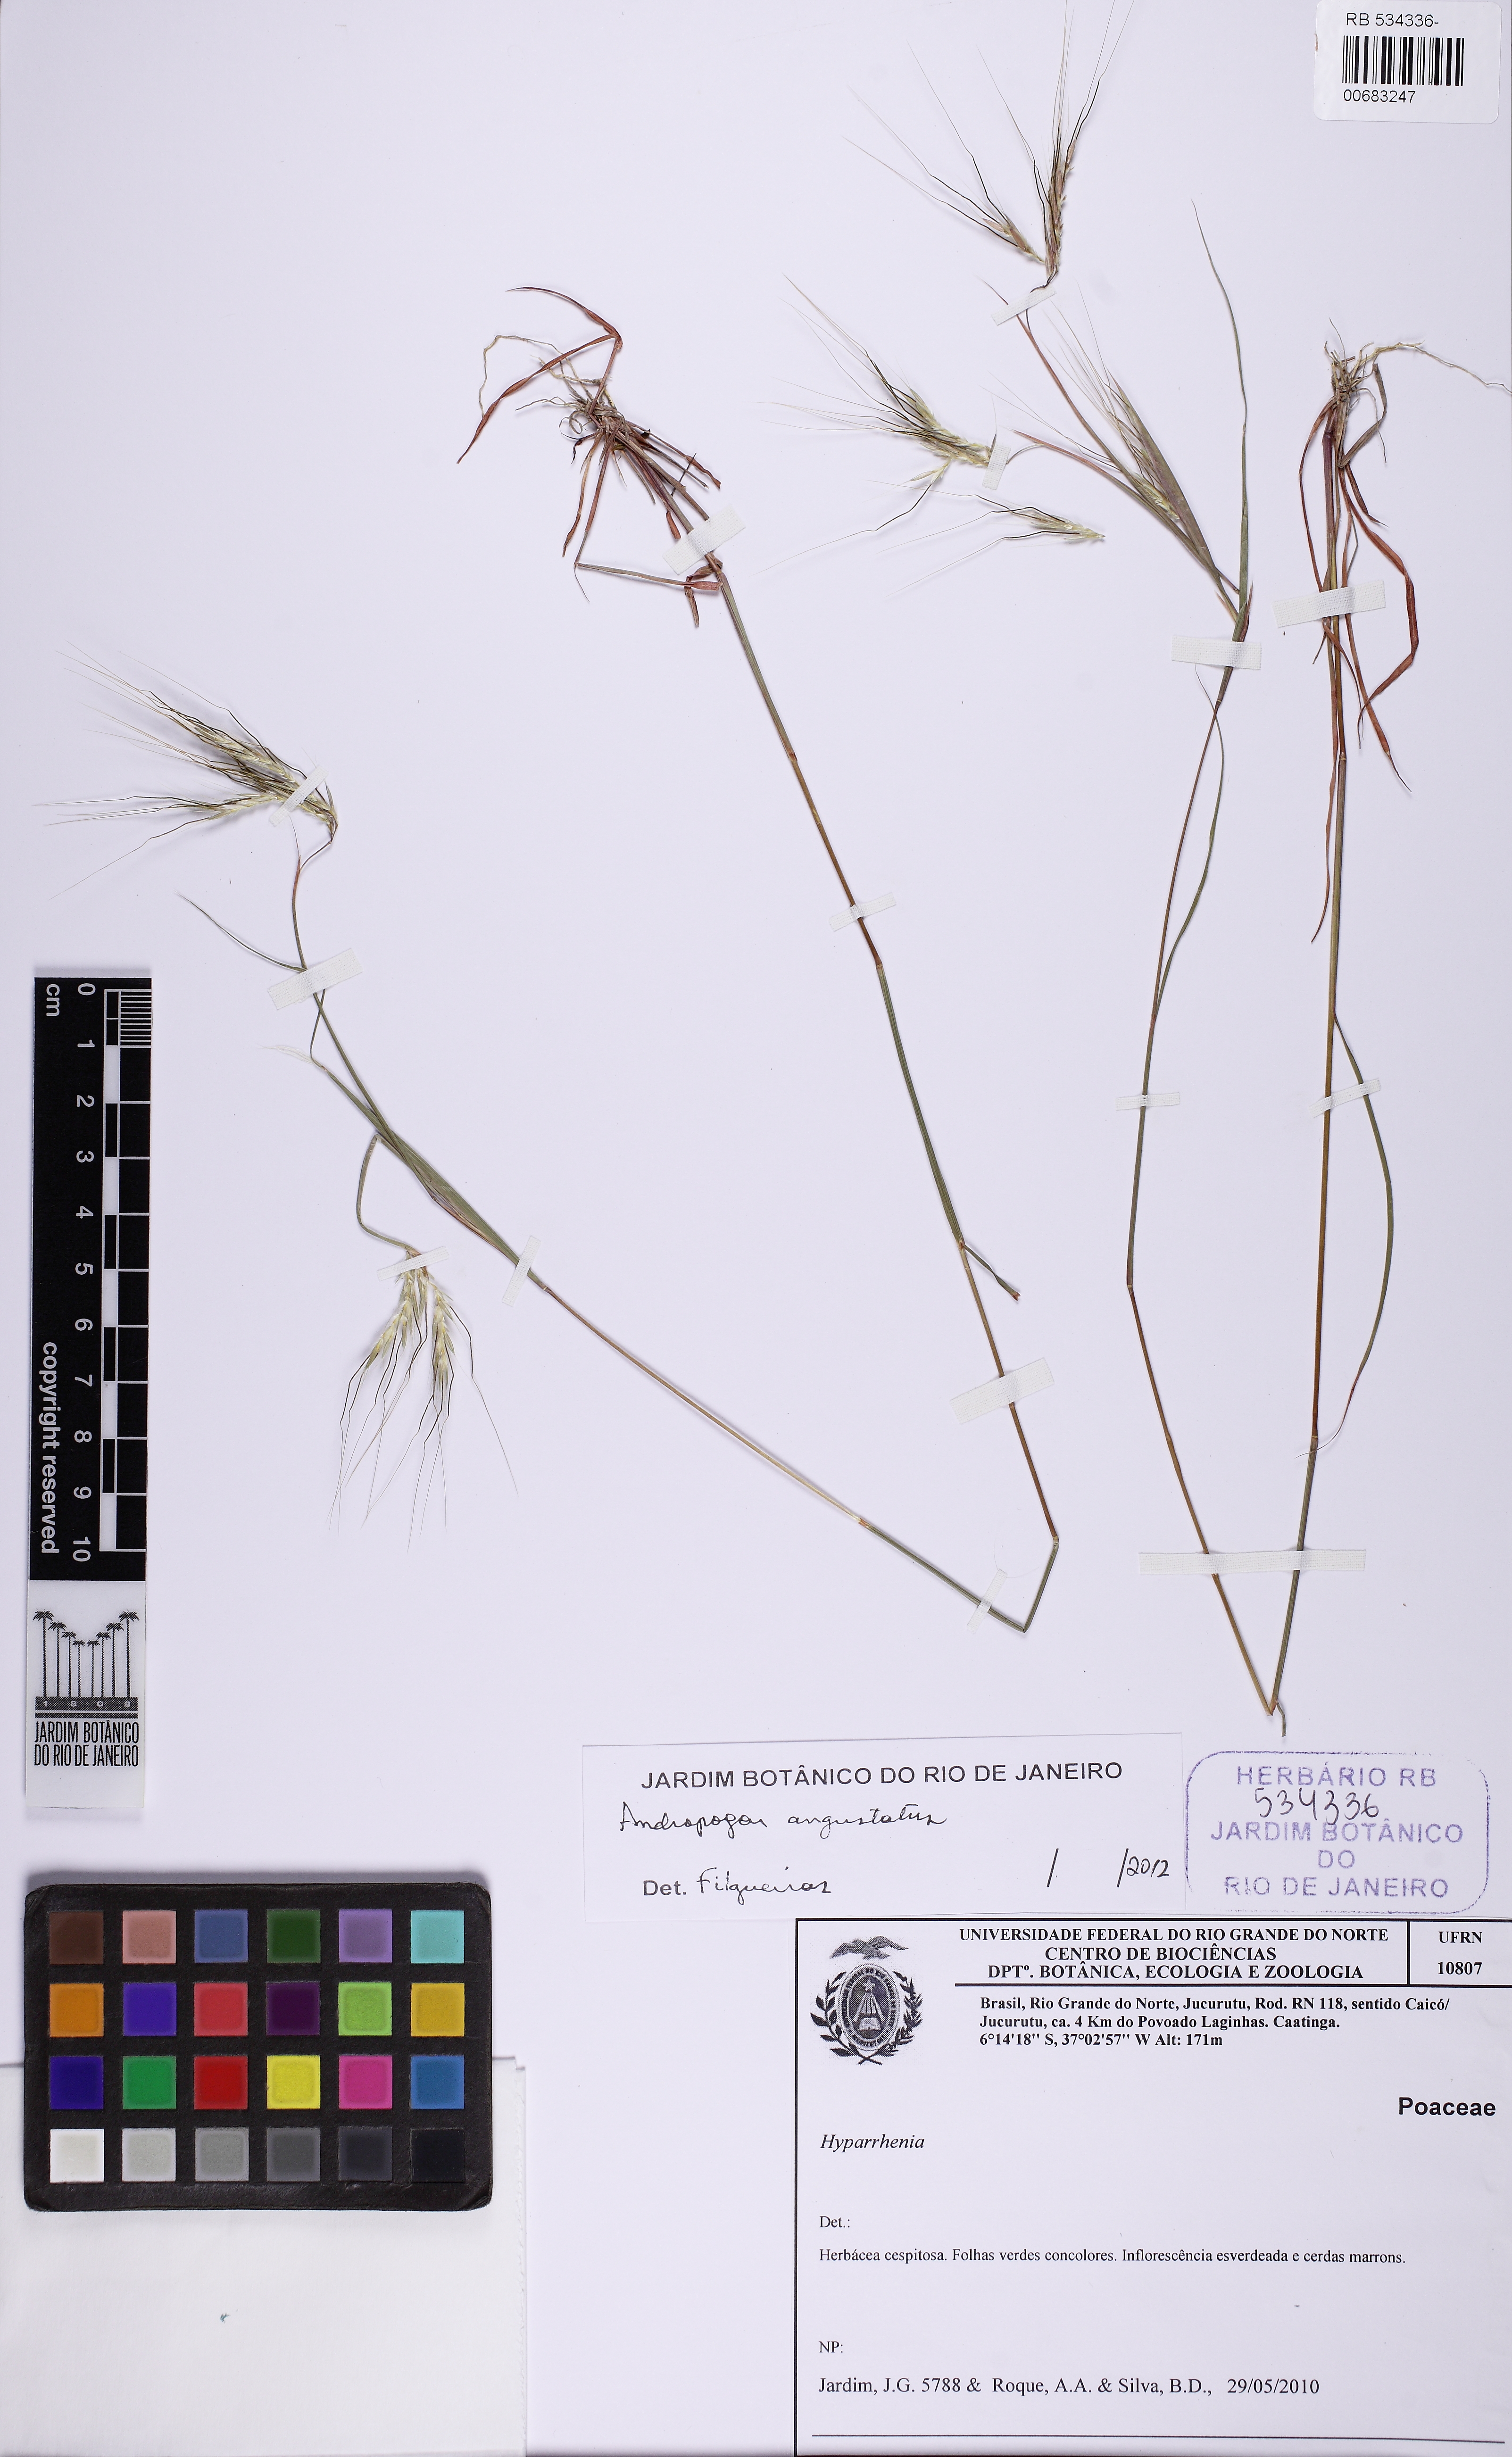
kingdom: Plantae
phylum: Tracheophyta
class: Liliopsida
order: Poales
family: Poaceae
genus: Andropogon
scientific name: Andropogon angustatus
